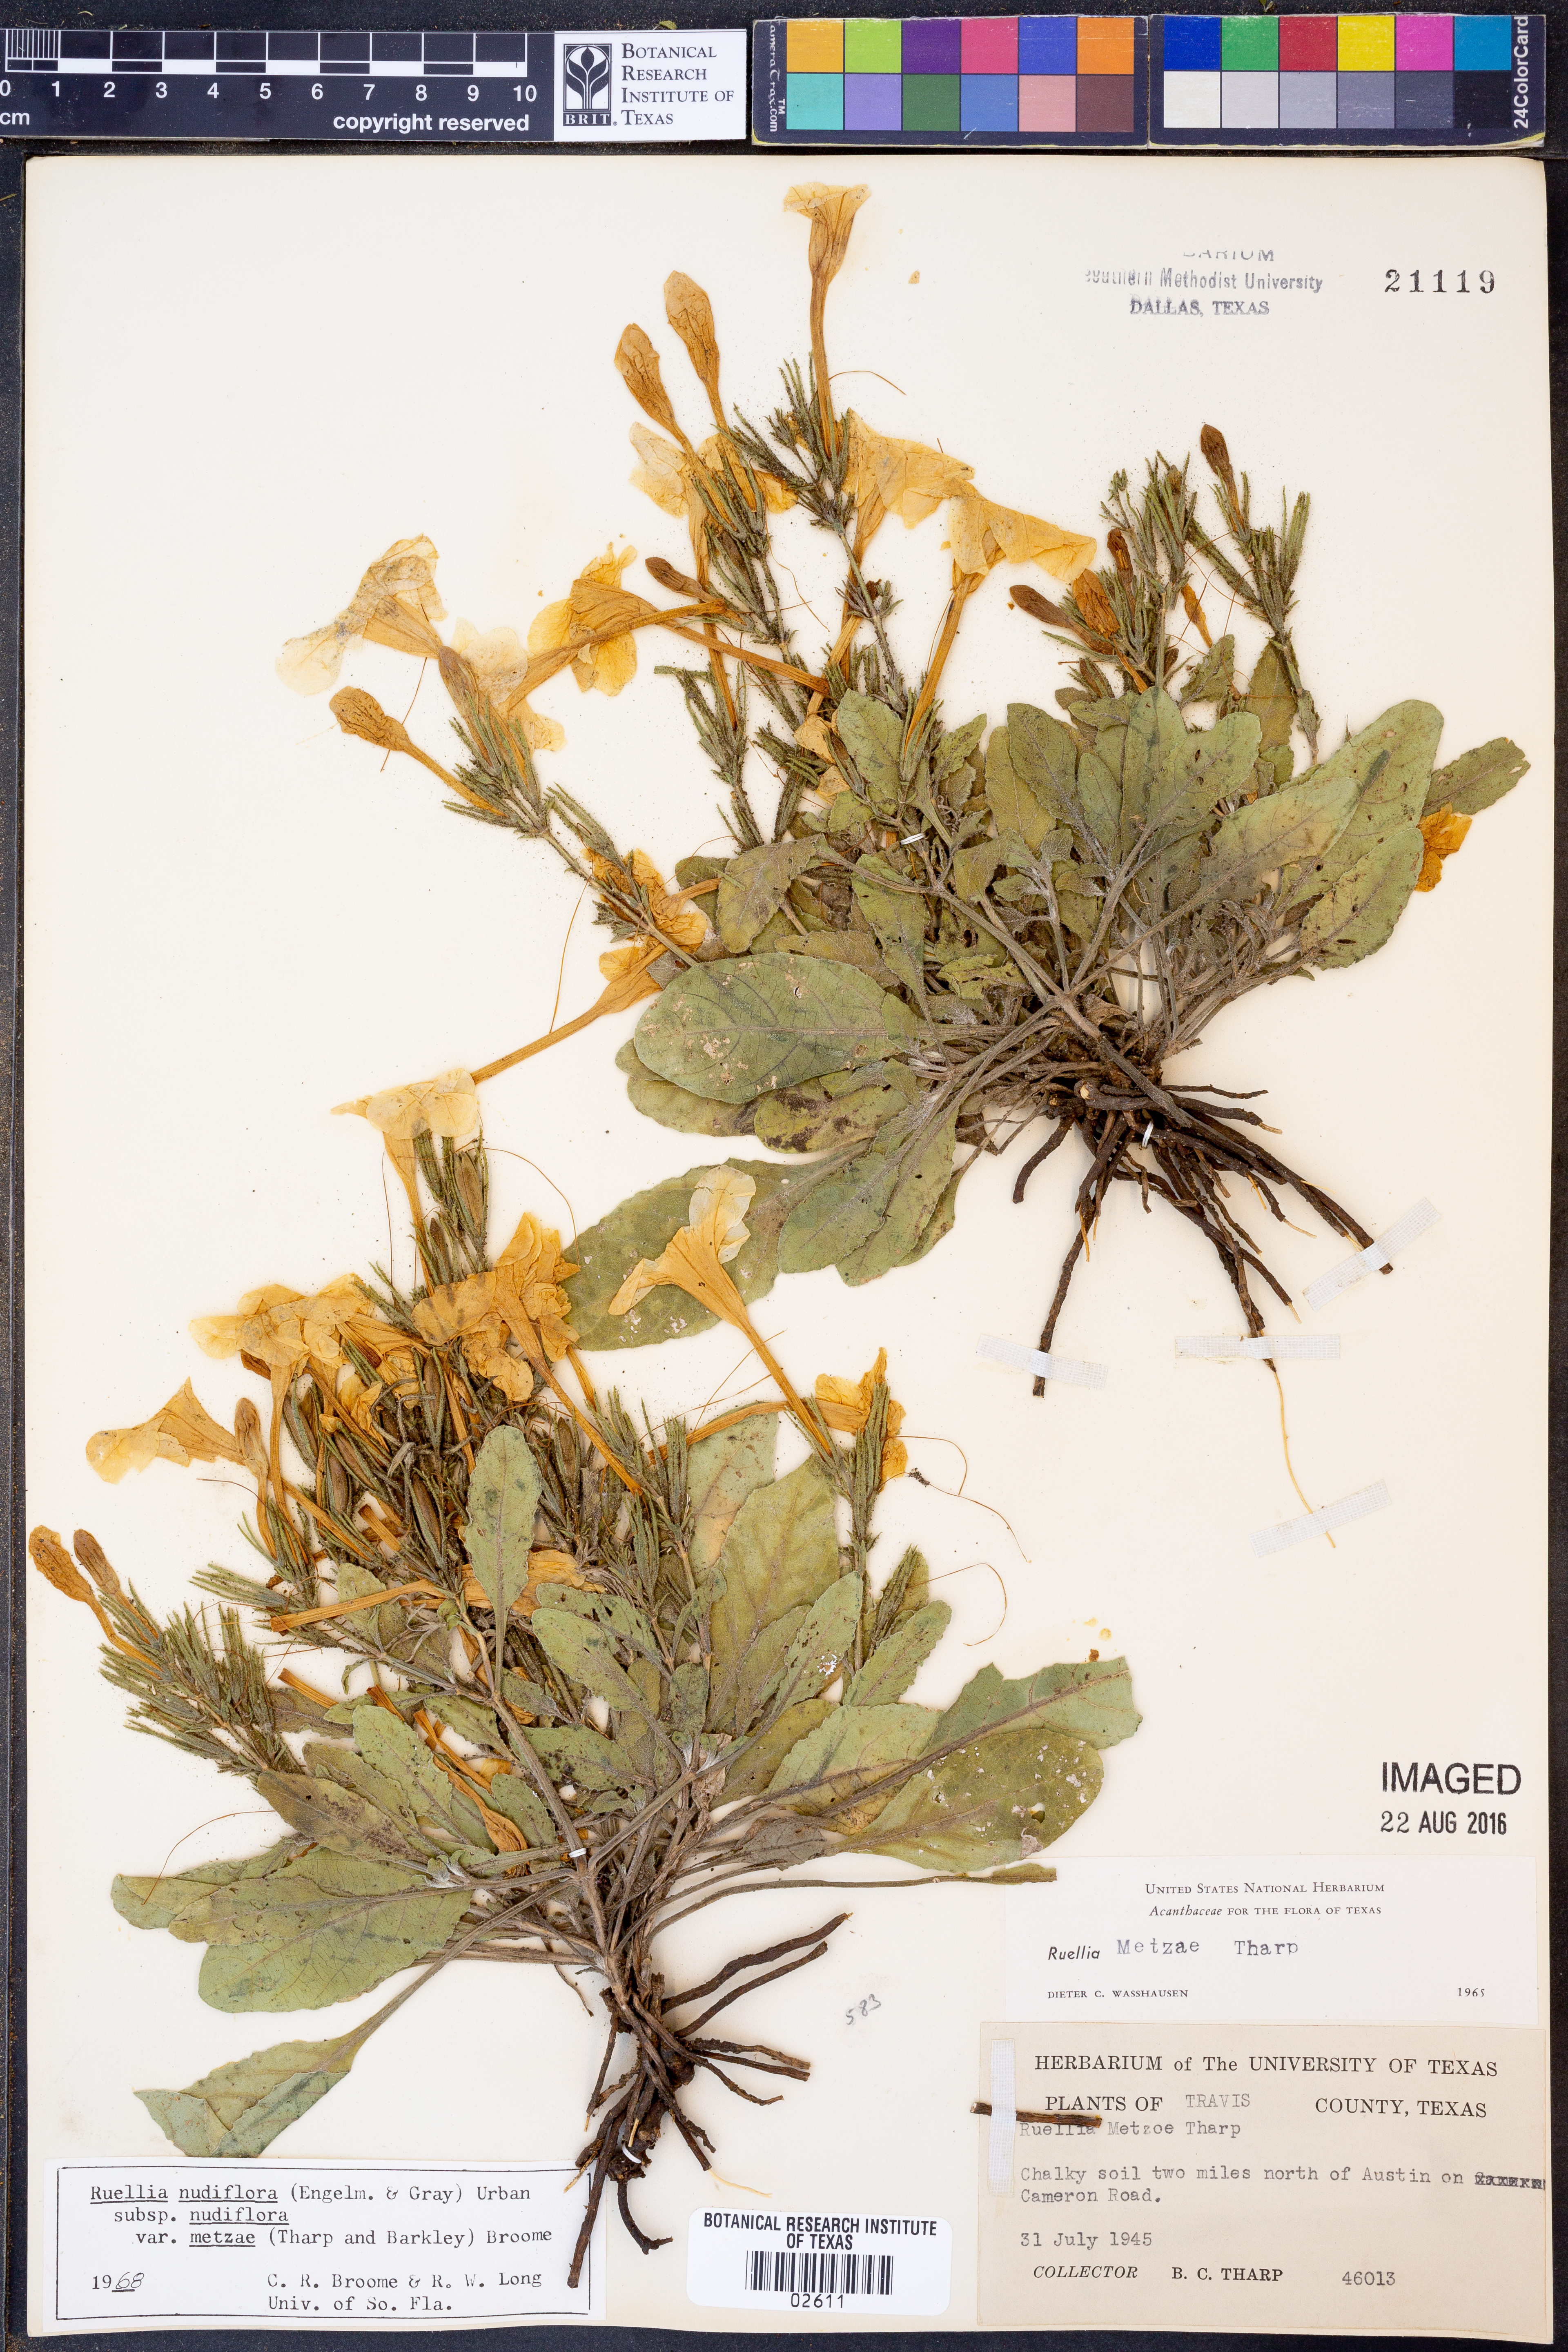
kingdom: Plantae
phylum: Tracheophyta
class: Magnoliopsida
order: Lamiales
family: Acanthaceae
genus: Ruellia
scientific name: Ruellia ciliatiflora
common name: Hairyflower wild petunia
